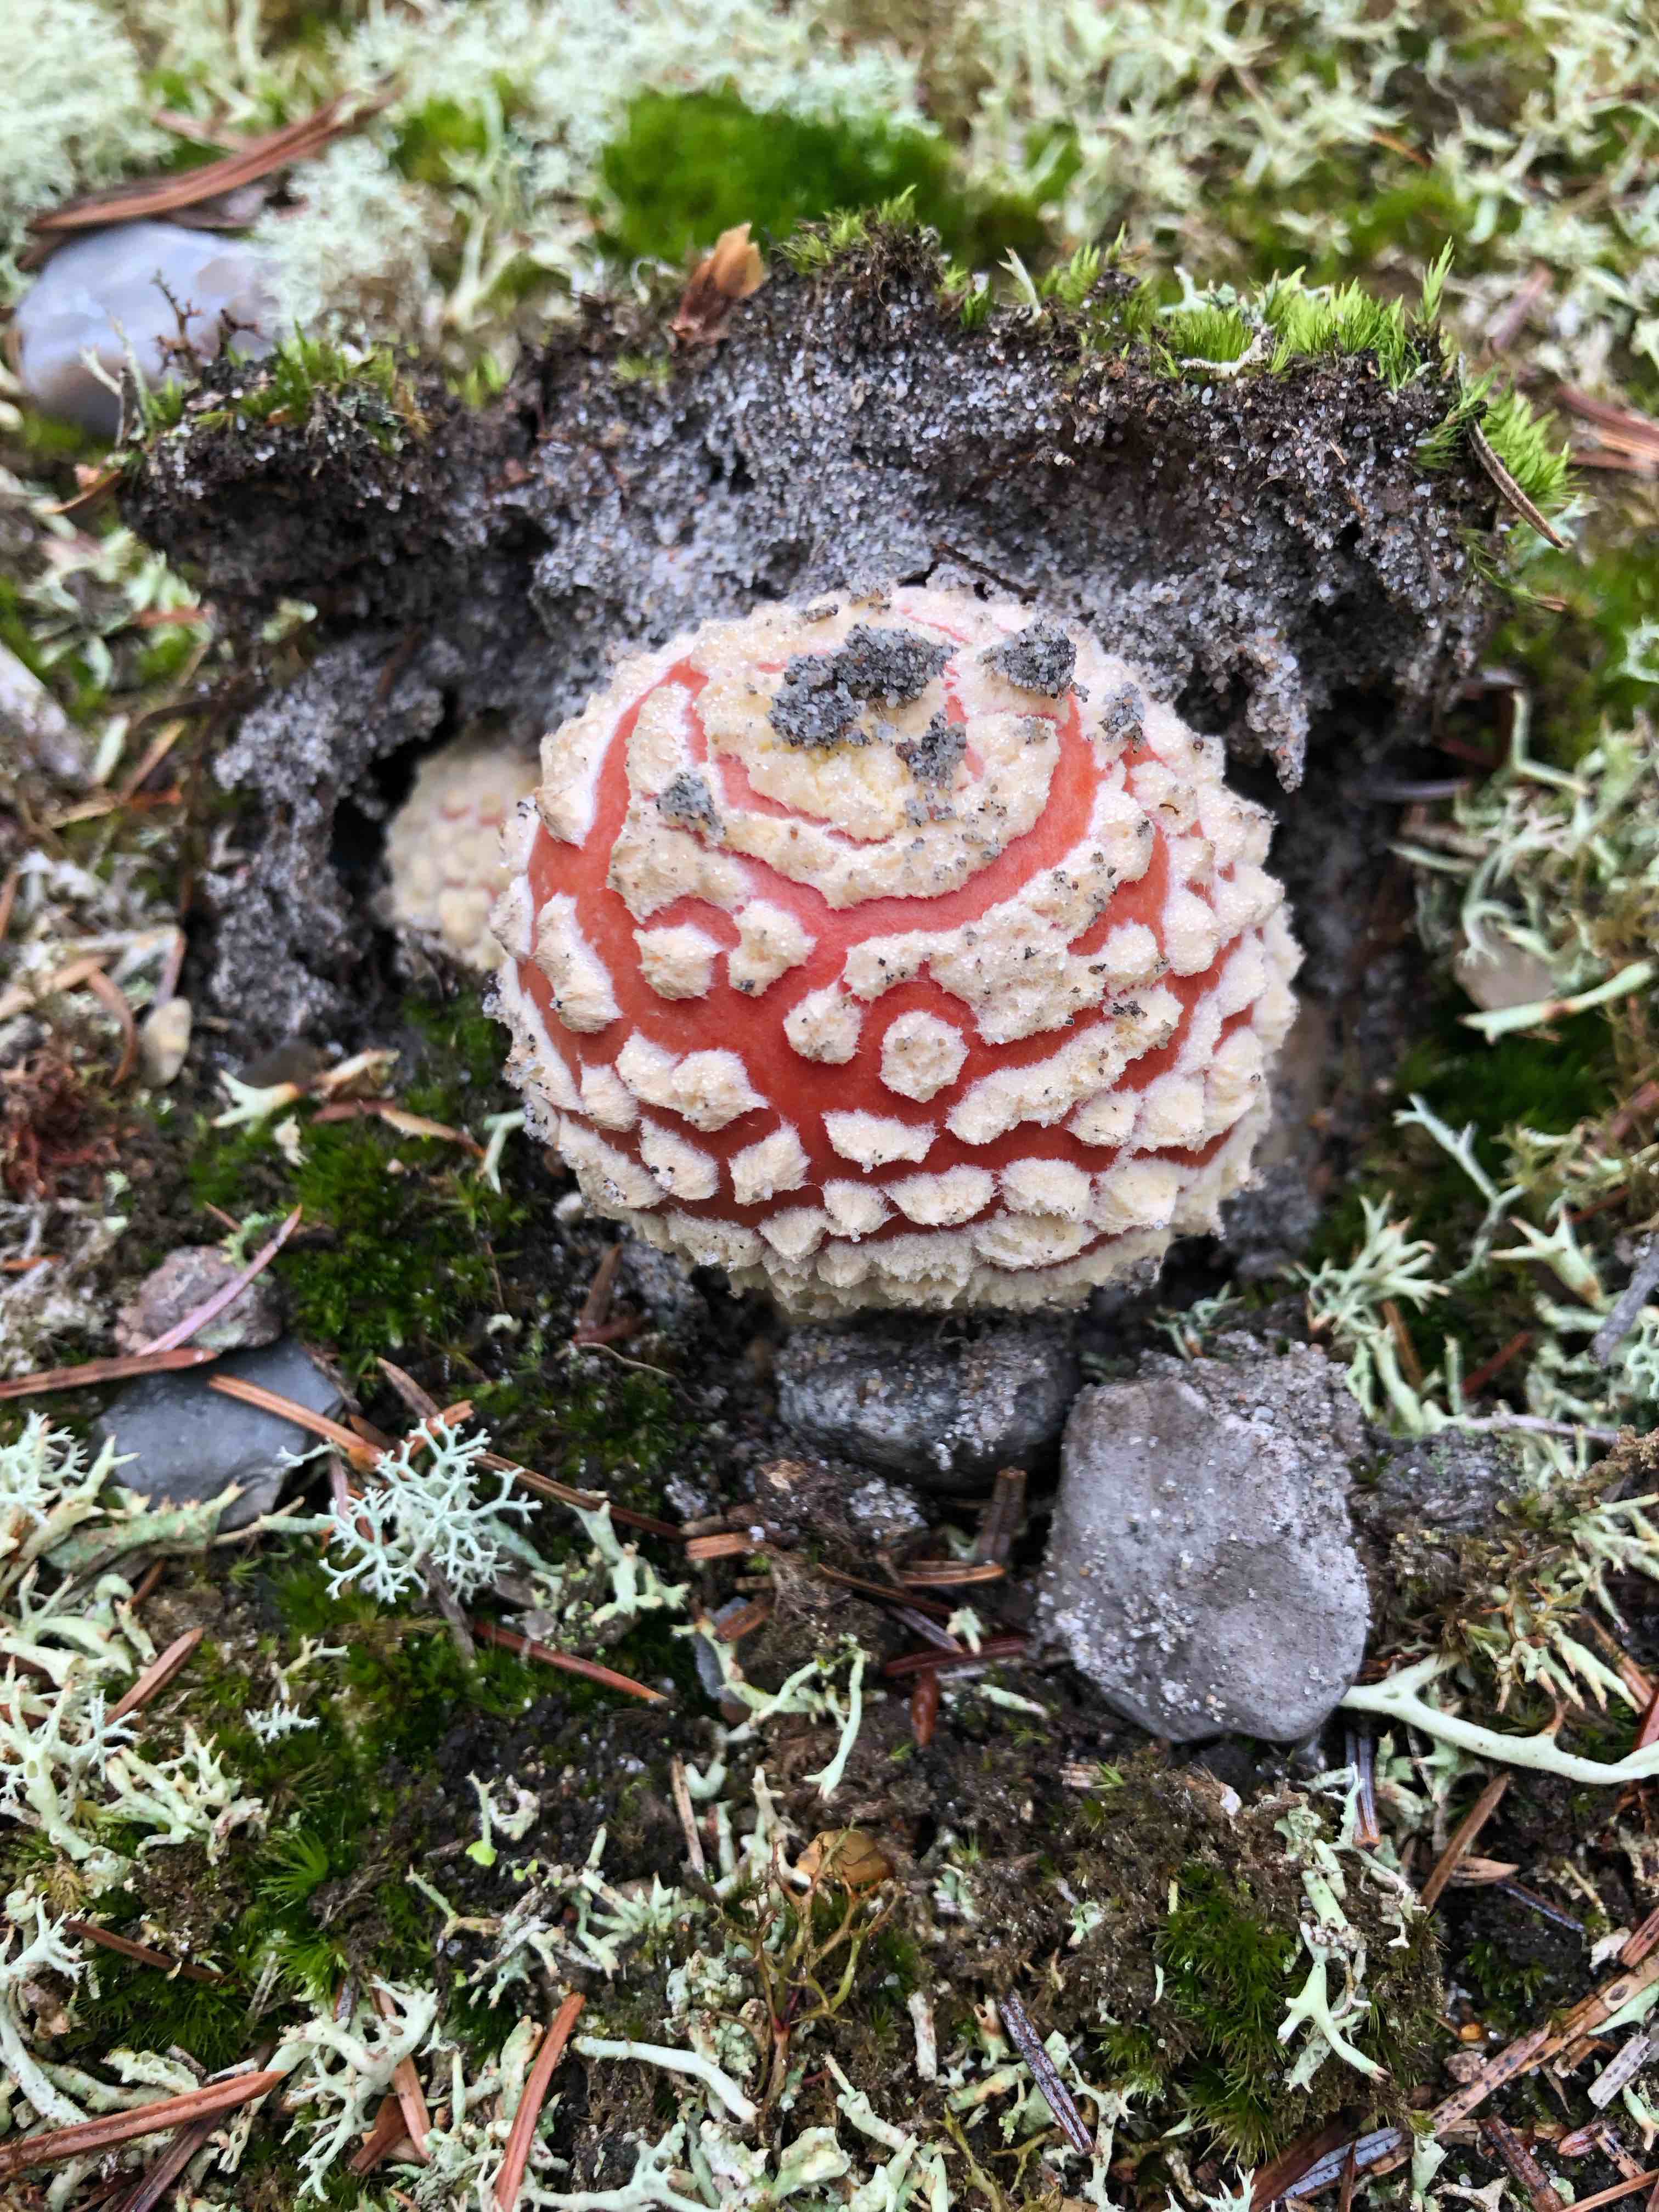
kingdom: Fungi
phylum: Basidiomycota
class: Agaricomycetes
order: Agaricales
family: Amanitaceae
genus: Amanita
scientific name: Amanita muscaria
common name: rød fluesvamp
